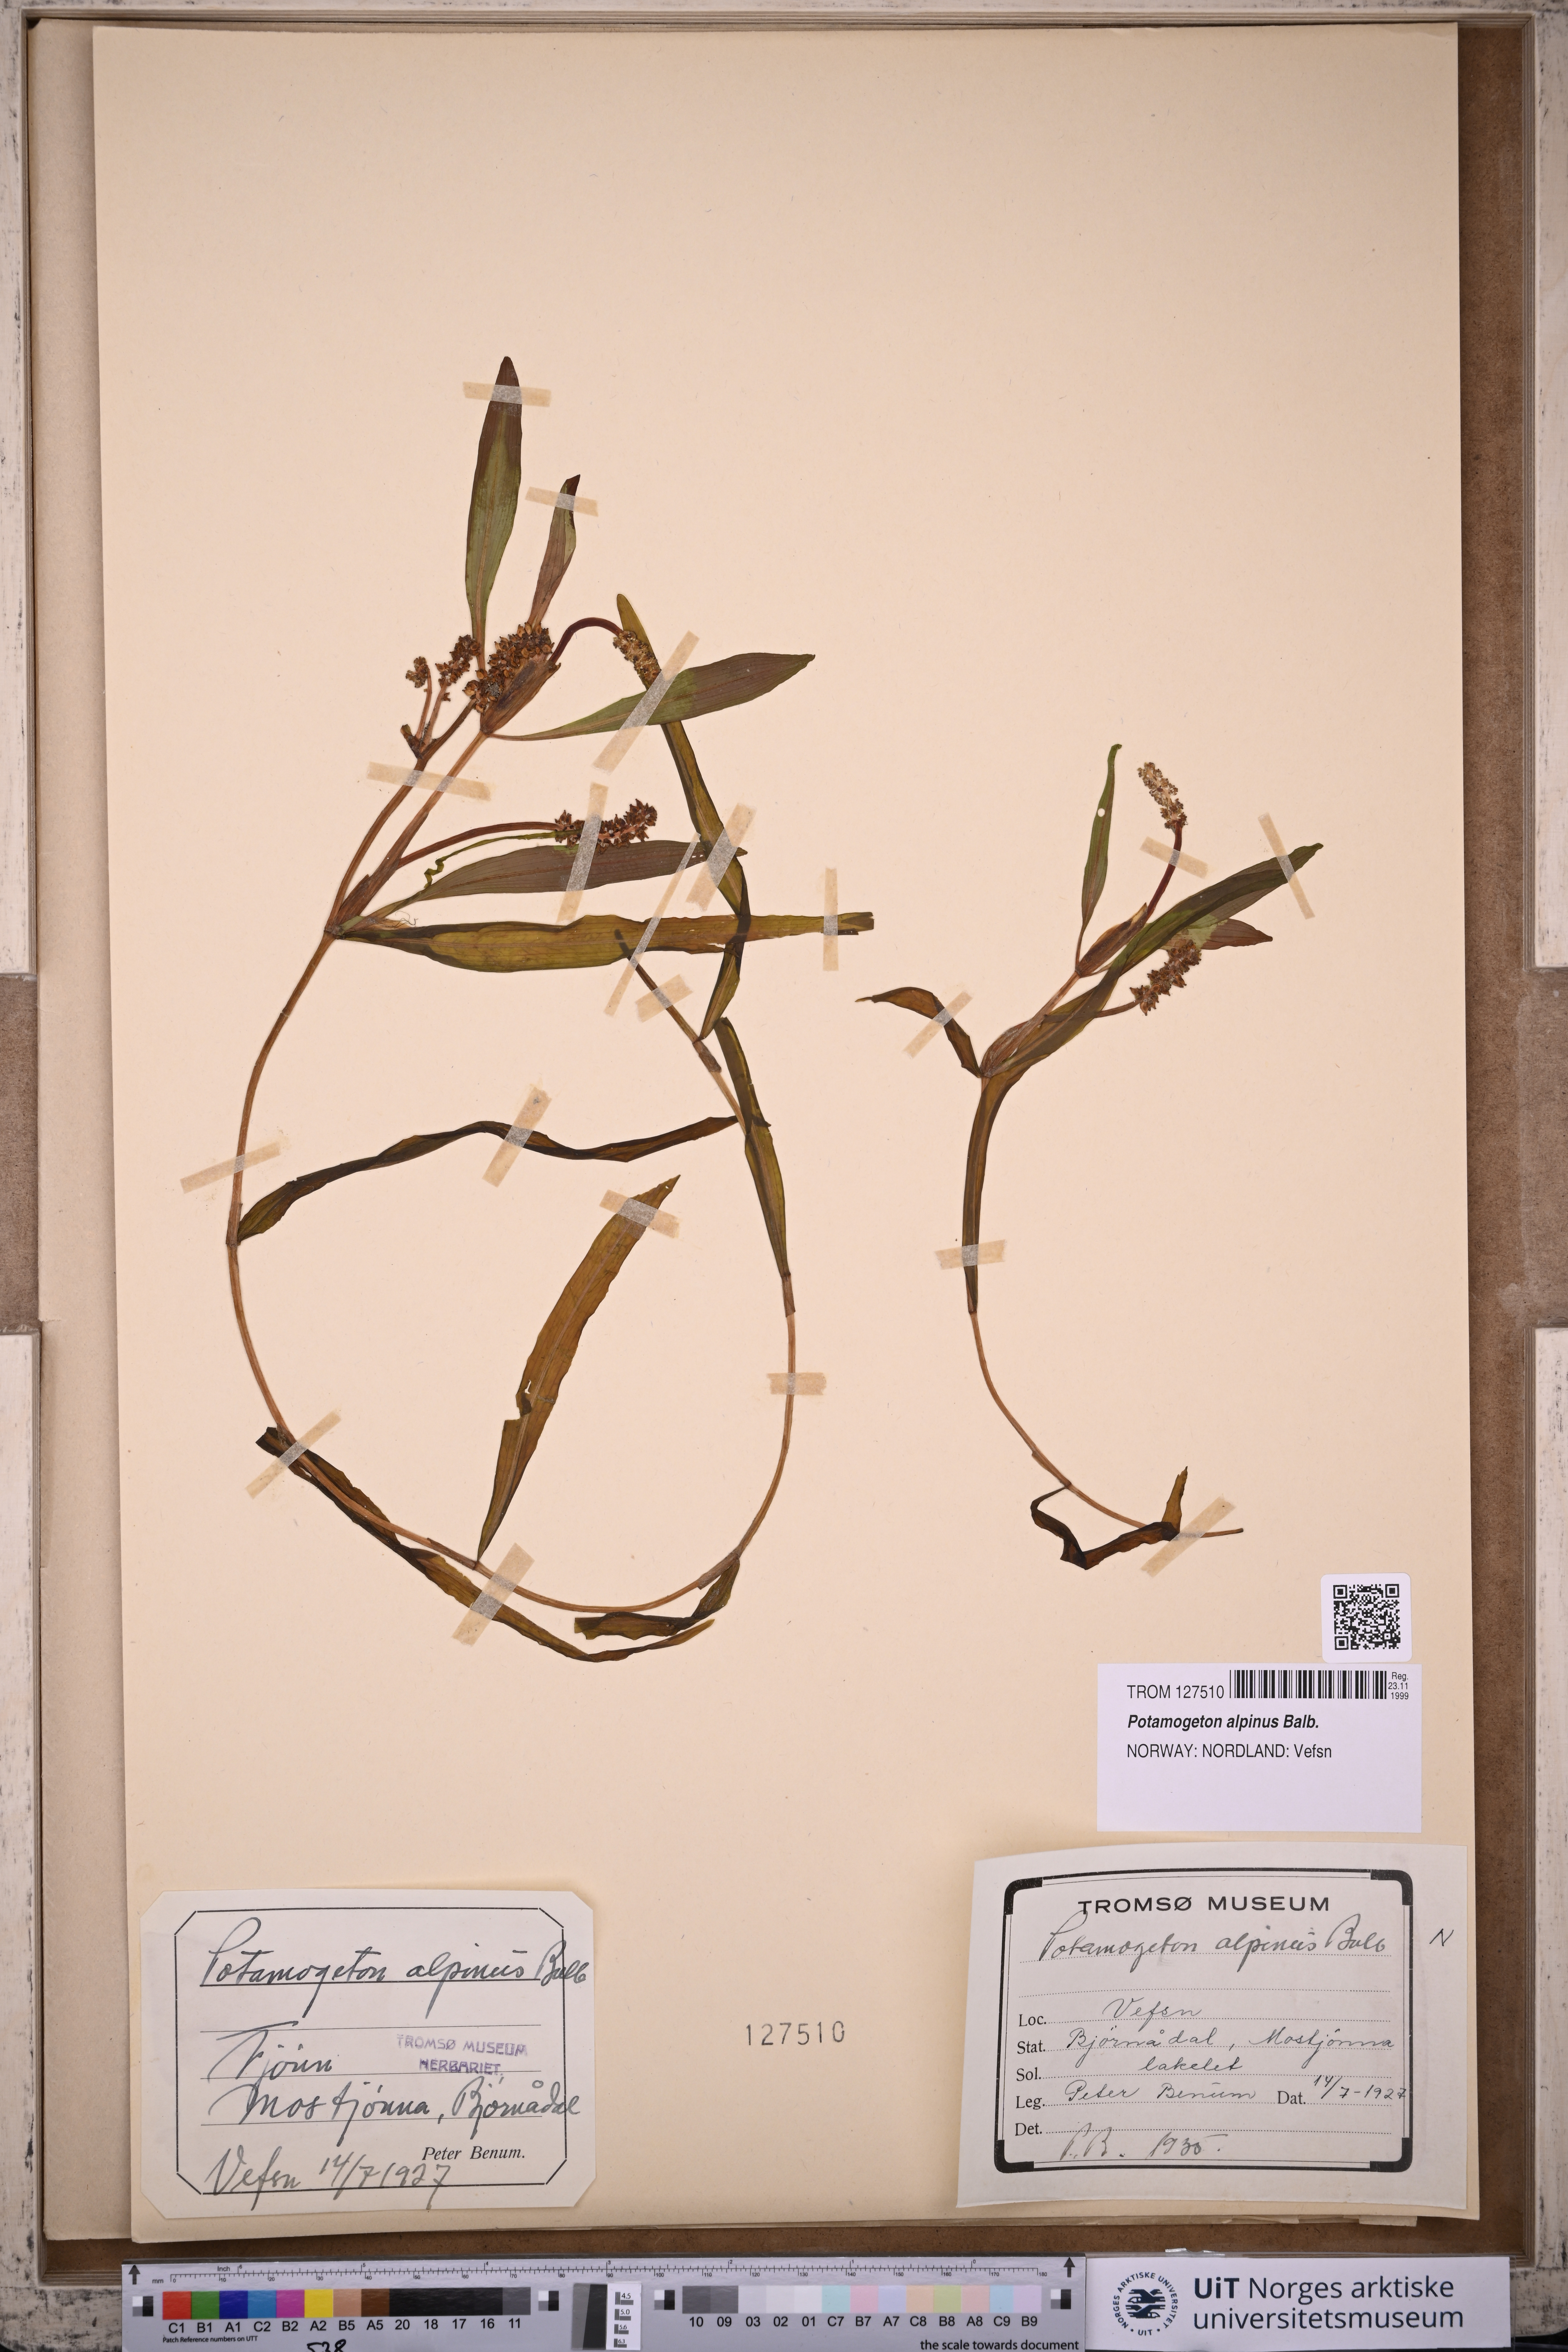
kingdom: Plantae
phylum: Tracheophyta
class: Liliopsida
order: Alismatales
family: Potamogetonaceae
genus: Potamogeton
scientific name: Potamogeton alpinus
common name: Red pondweed
